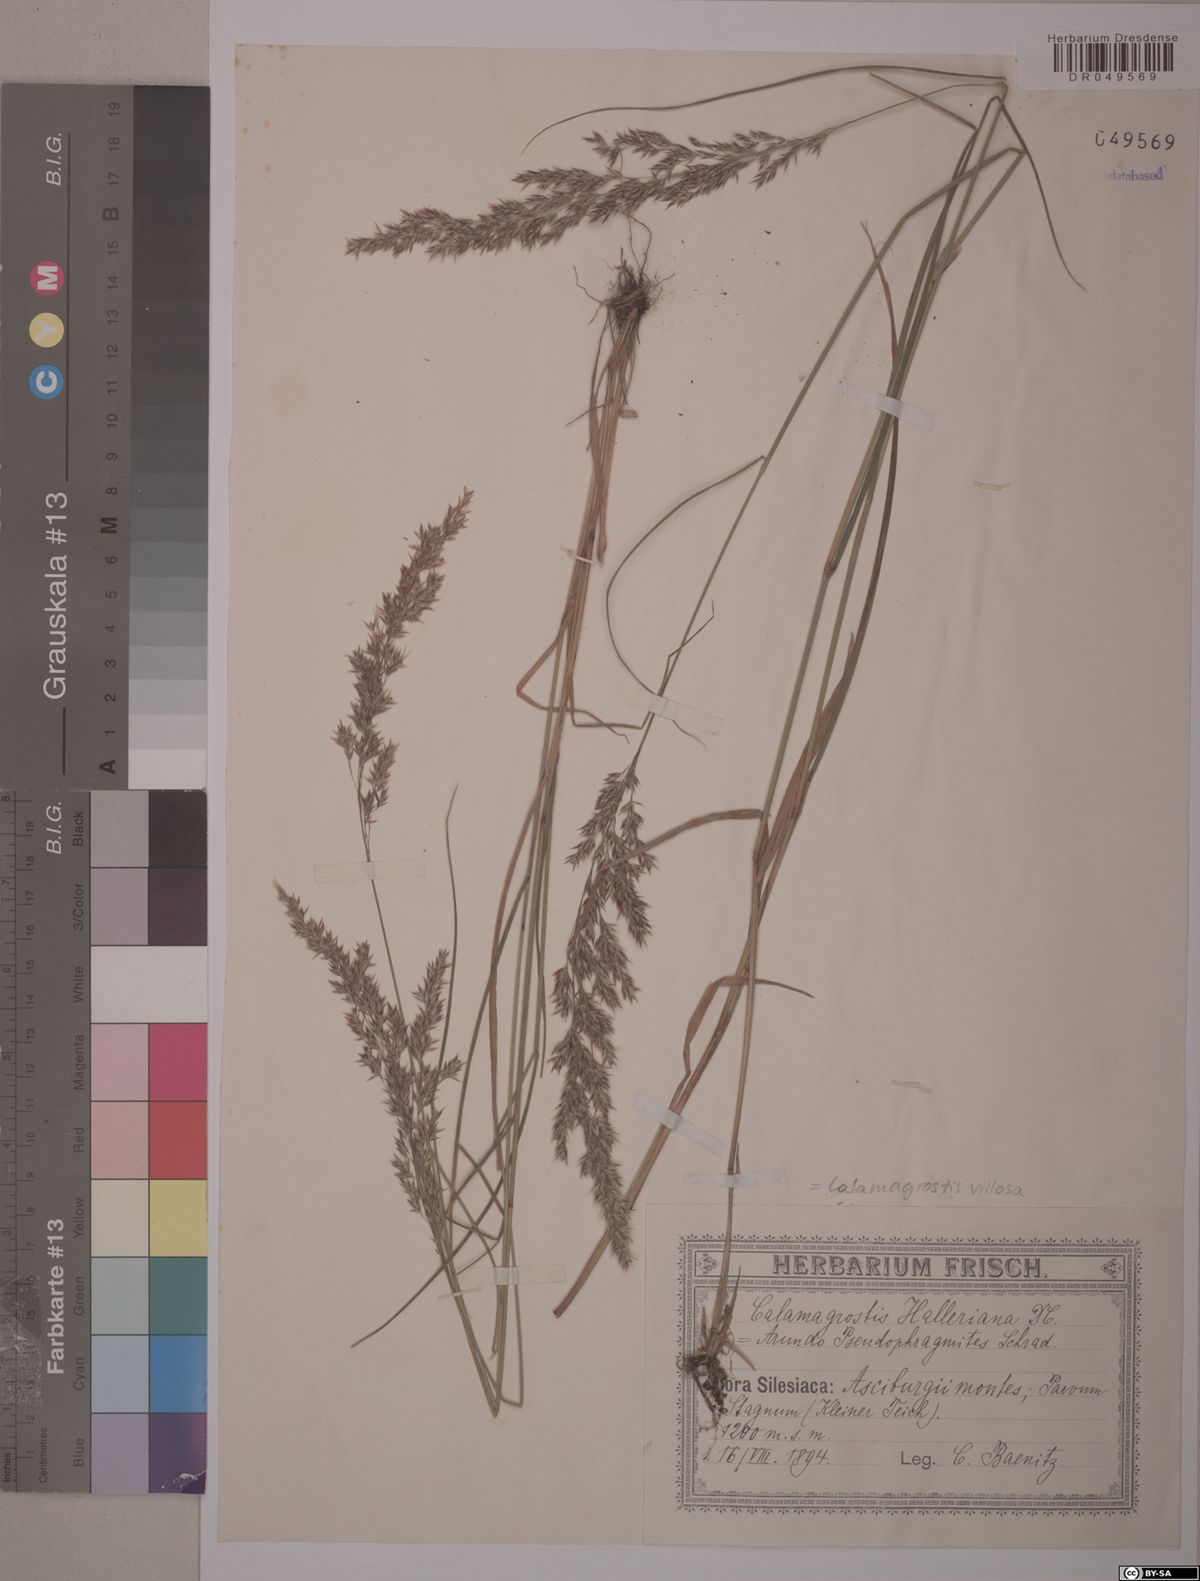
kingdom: Plantae
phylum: Tracheophyta
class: Liliopsida
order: Poales
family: Poaceae
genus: Calamagrostis
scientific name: Calamagrostis villosa
